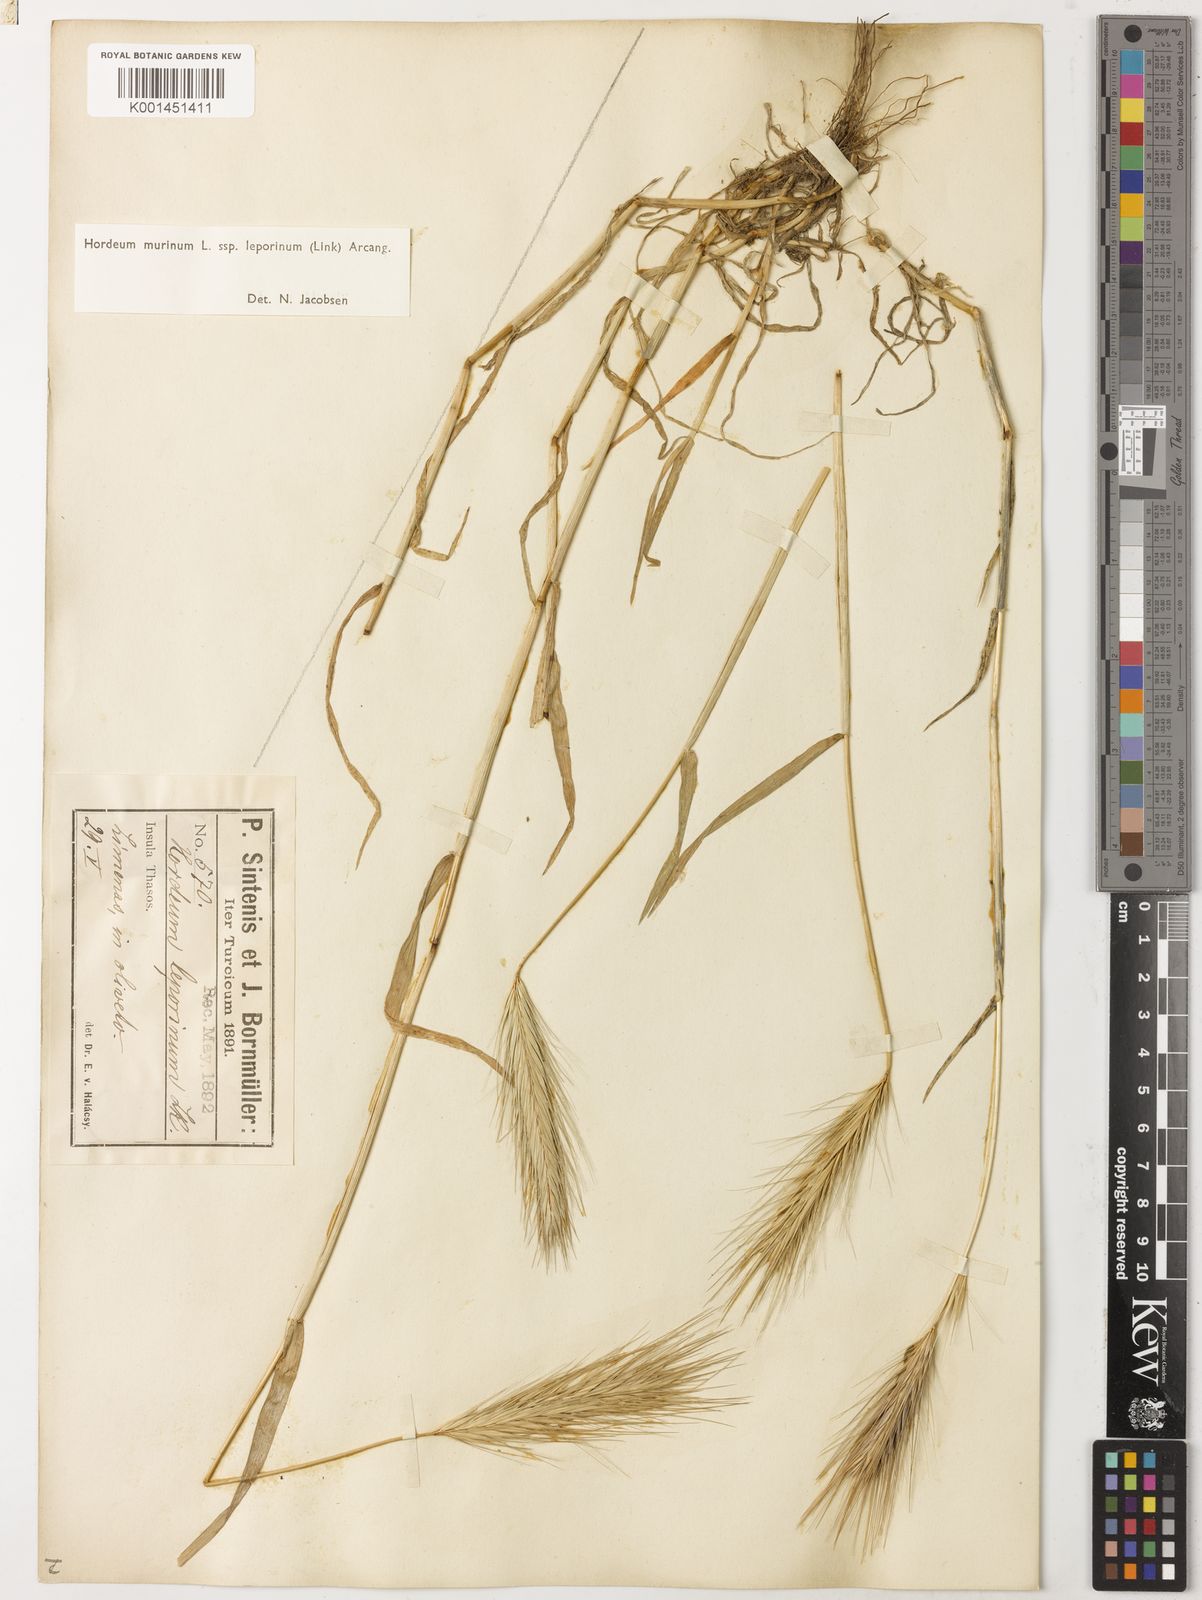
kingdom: Plantae
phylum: Tracheophyta
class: Liliopsida
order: Poales
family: Poaceae
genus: Hordeum
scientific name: Hordeum murinum
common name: Wall barley
